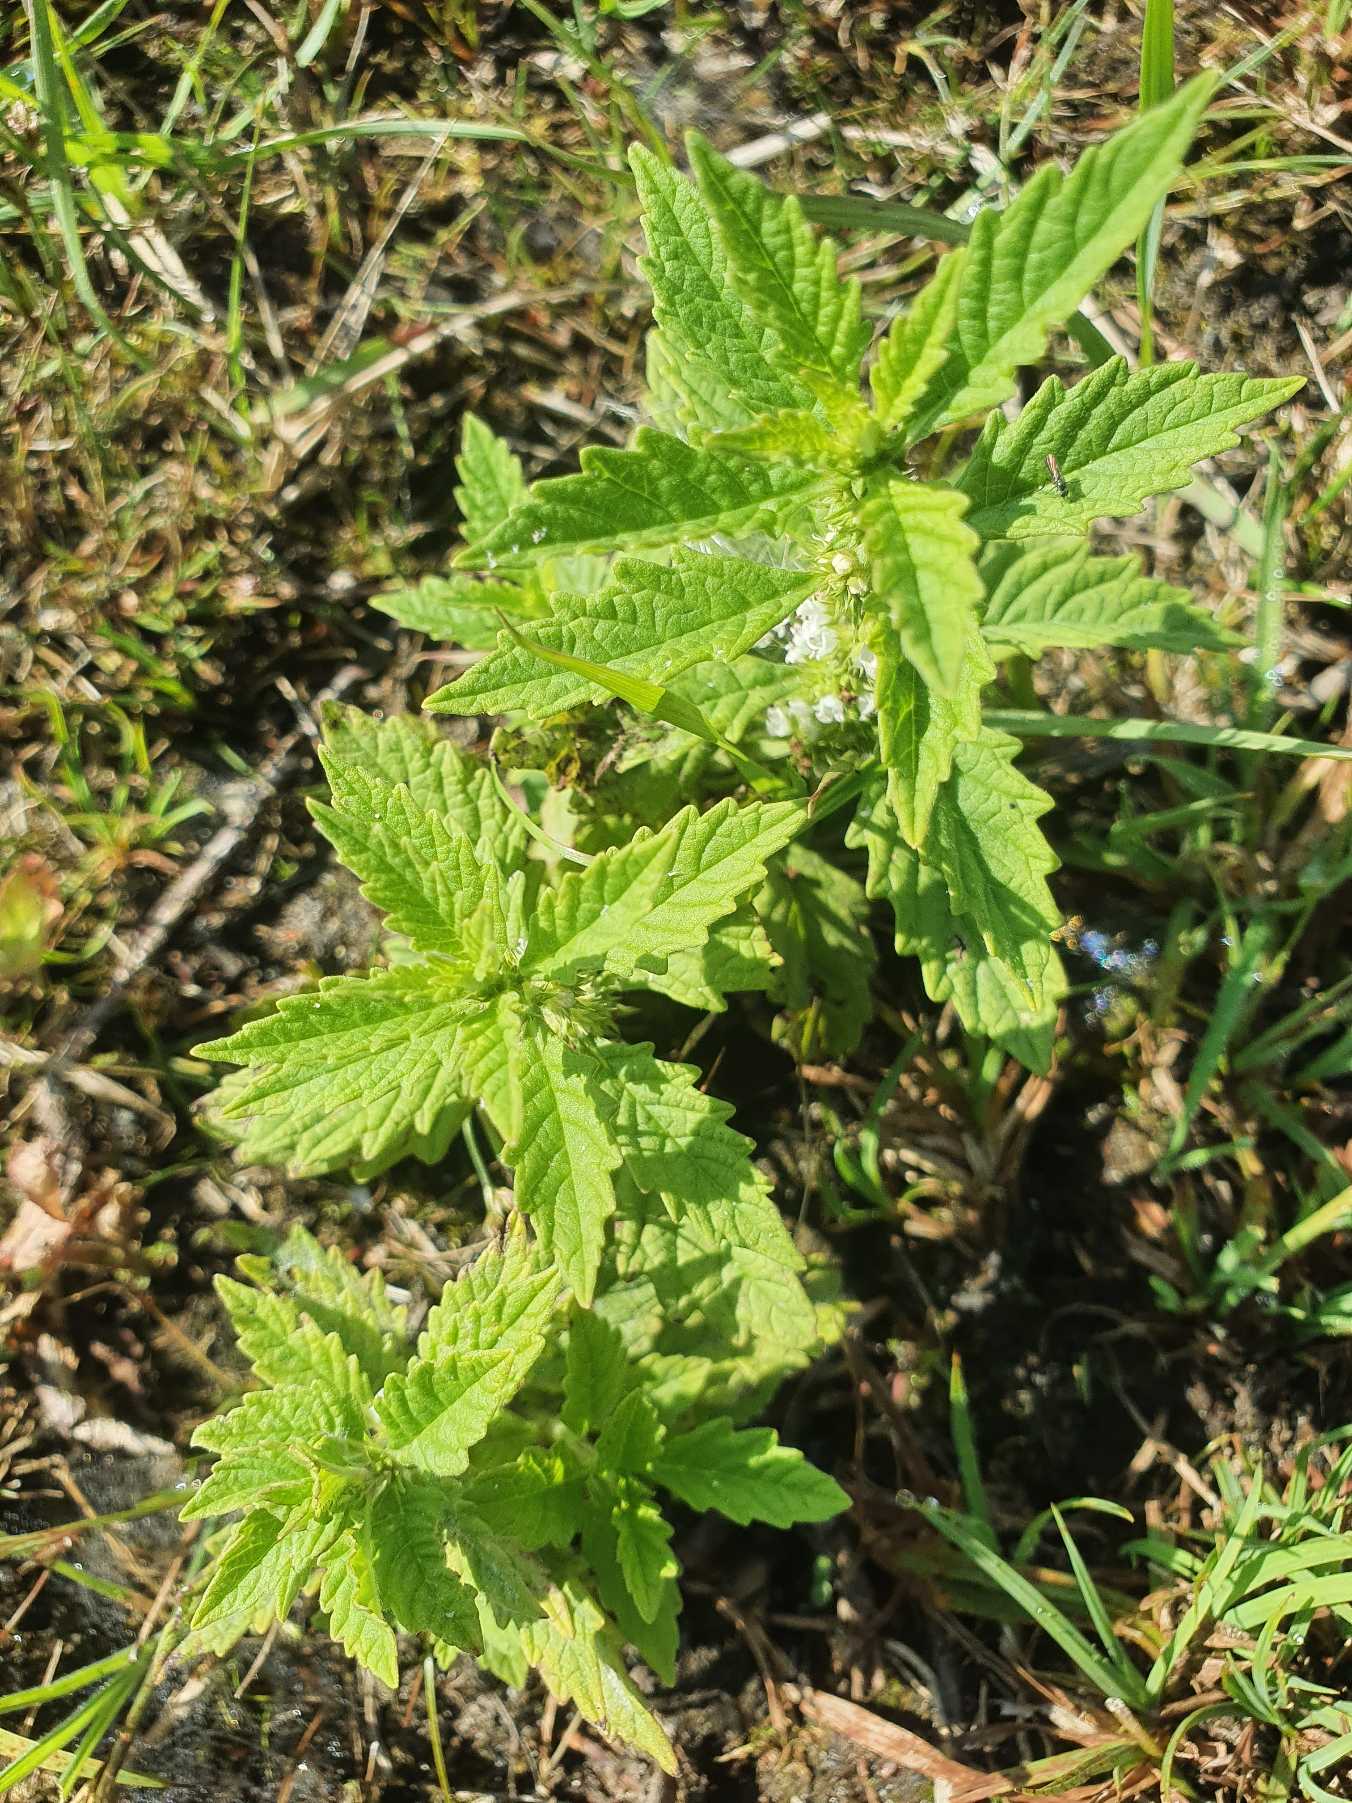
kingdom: Plantae
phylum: Tracheophyta
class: Magnoliopsida
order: Lamiales
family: Lamiaceae
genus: Lycopus
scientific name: Lycopus europaeus
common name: Sværtevæld
